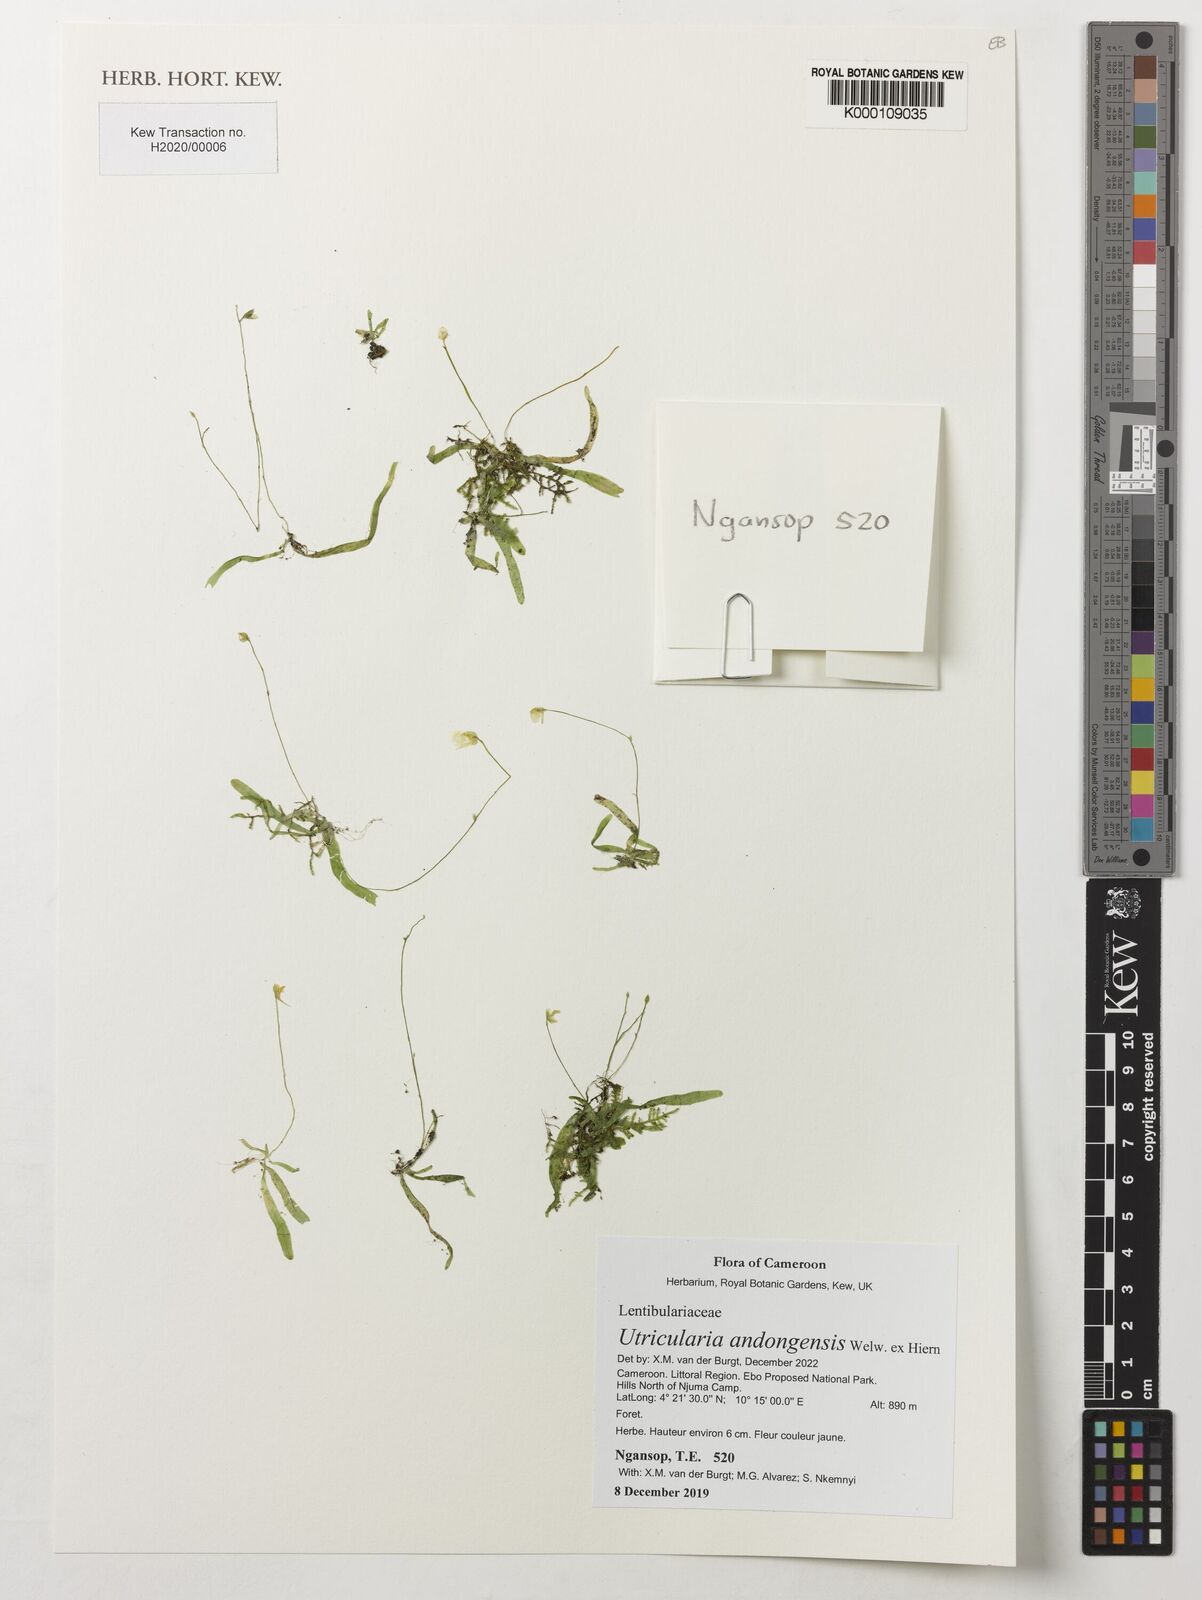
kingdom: Plantae
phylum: Tracheophyta
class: Magnoliopsida
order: Lamiales
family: Lentibulariaceae
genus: Utricularia
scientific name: Utricularia andongensis
